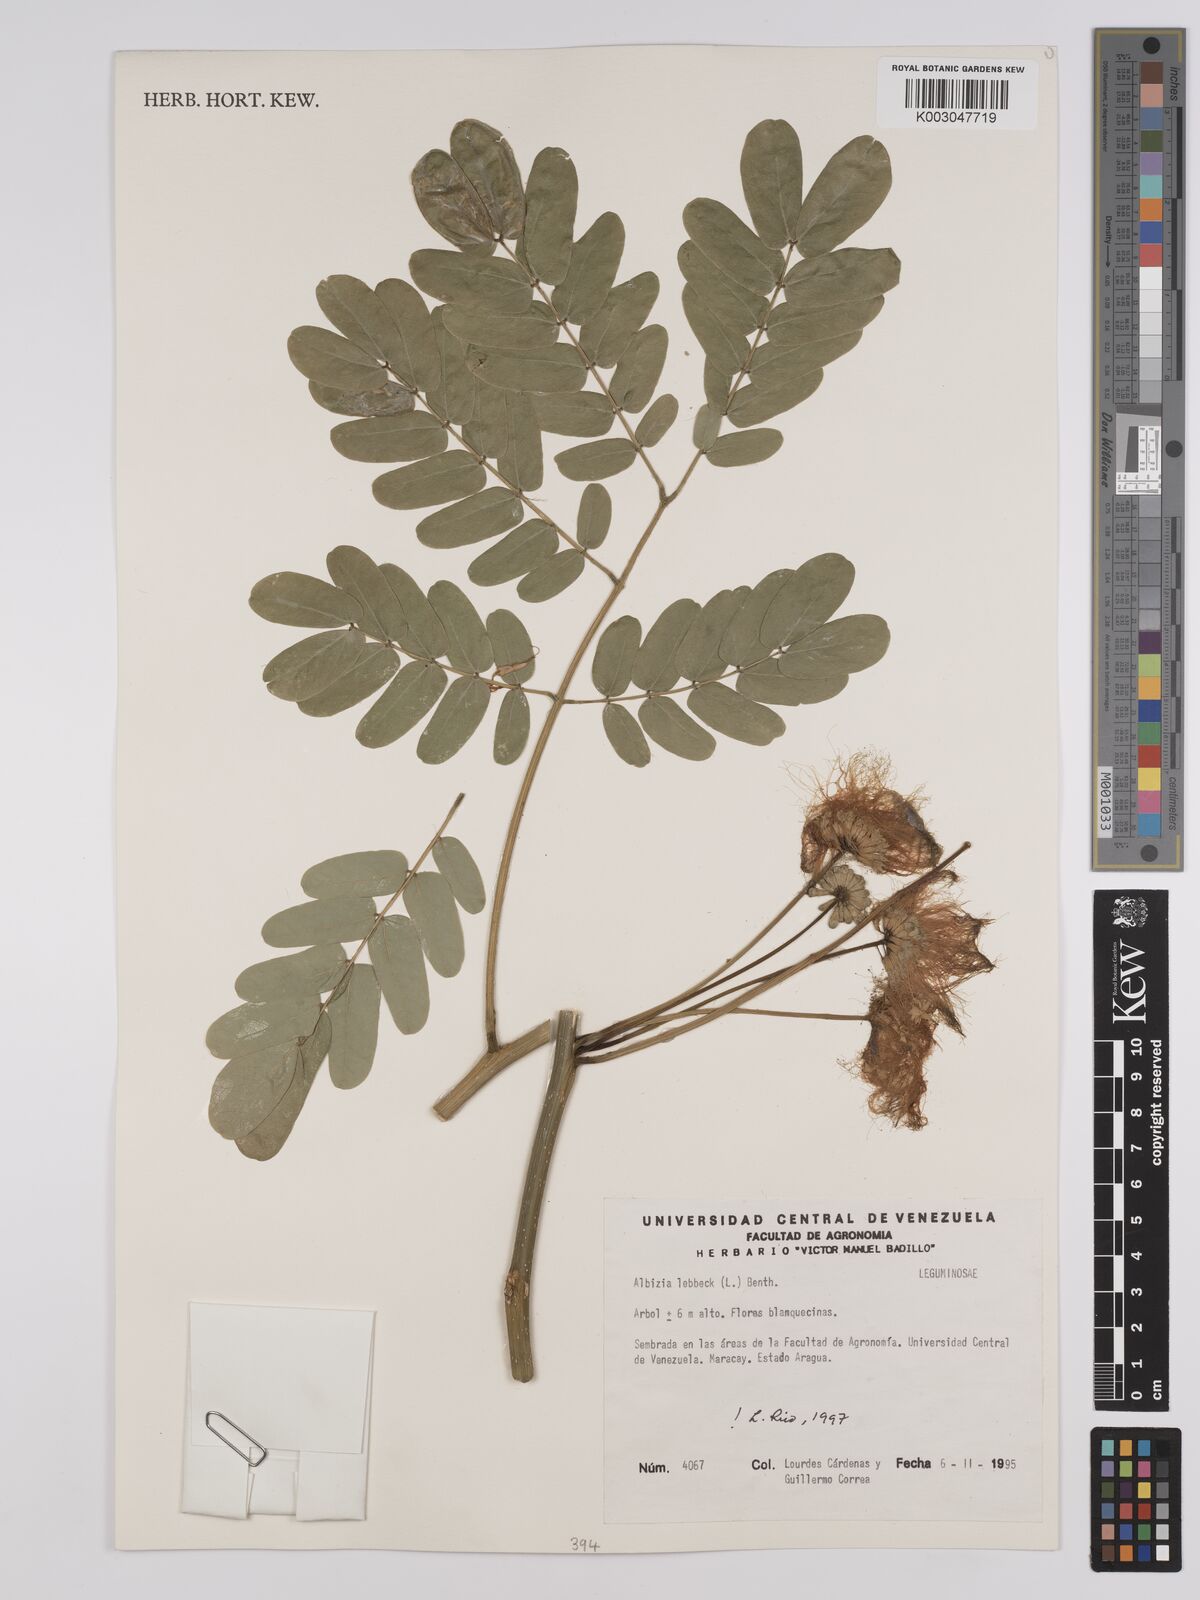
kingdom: Plantae
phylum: Tracheophyta
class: Magnoliopsida
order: Fabales
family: Fabaceae
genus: Albizia
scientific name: Albizia lebbeck
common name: Woman's tongue
